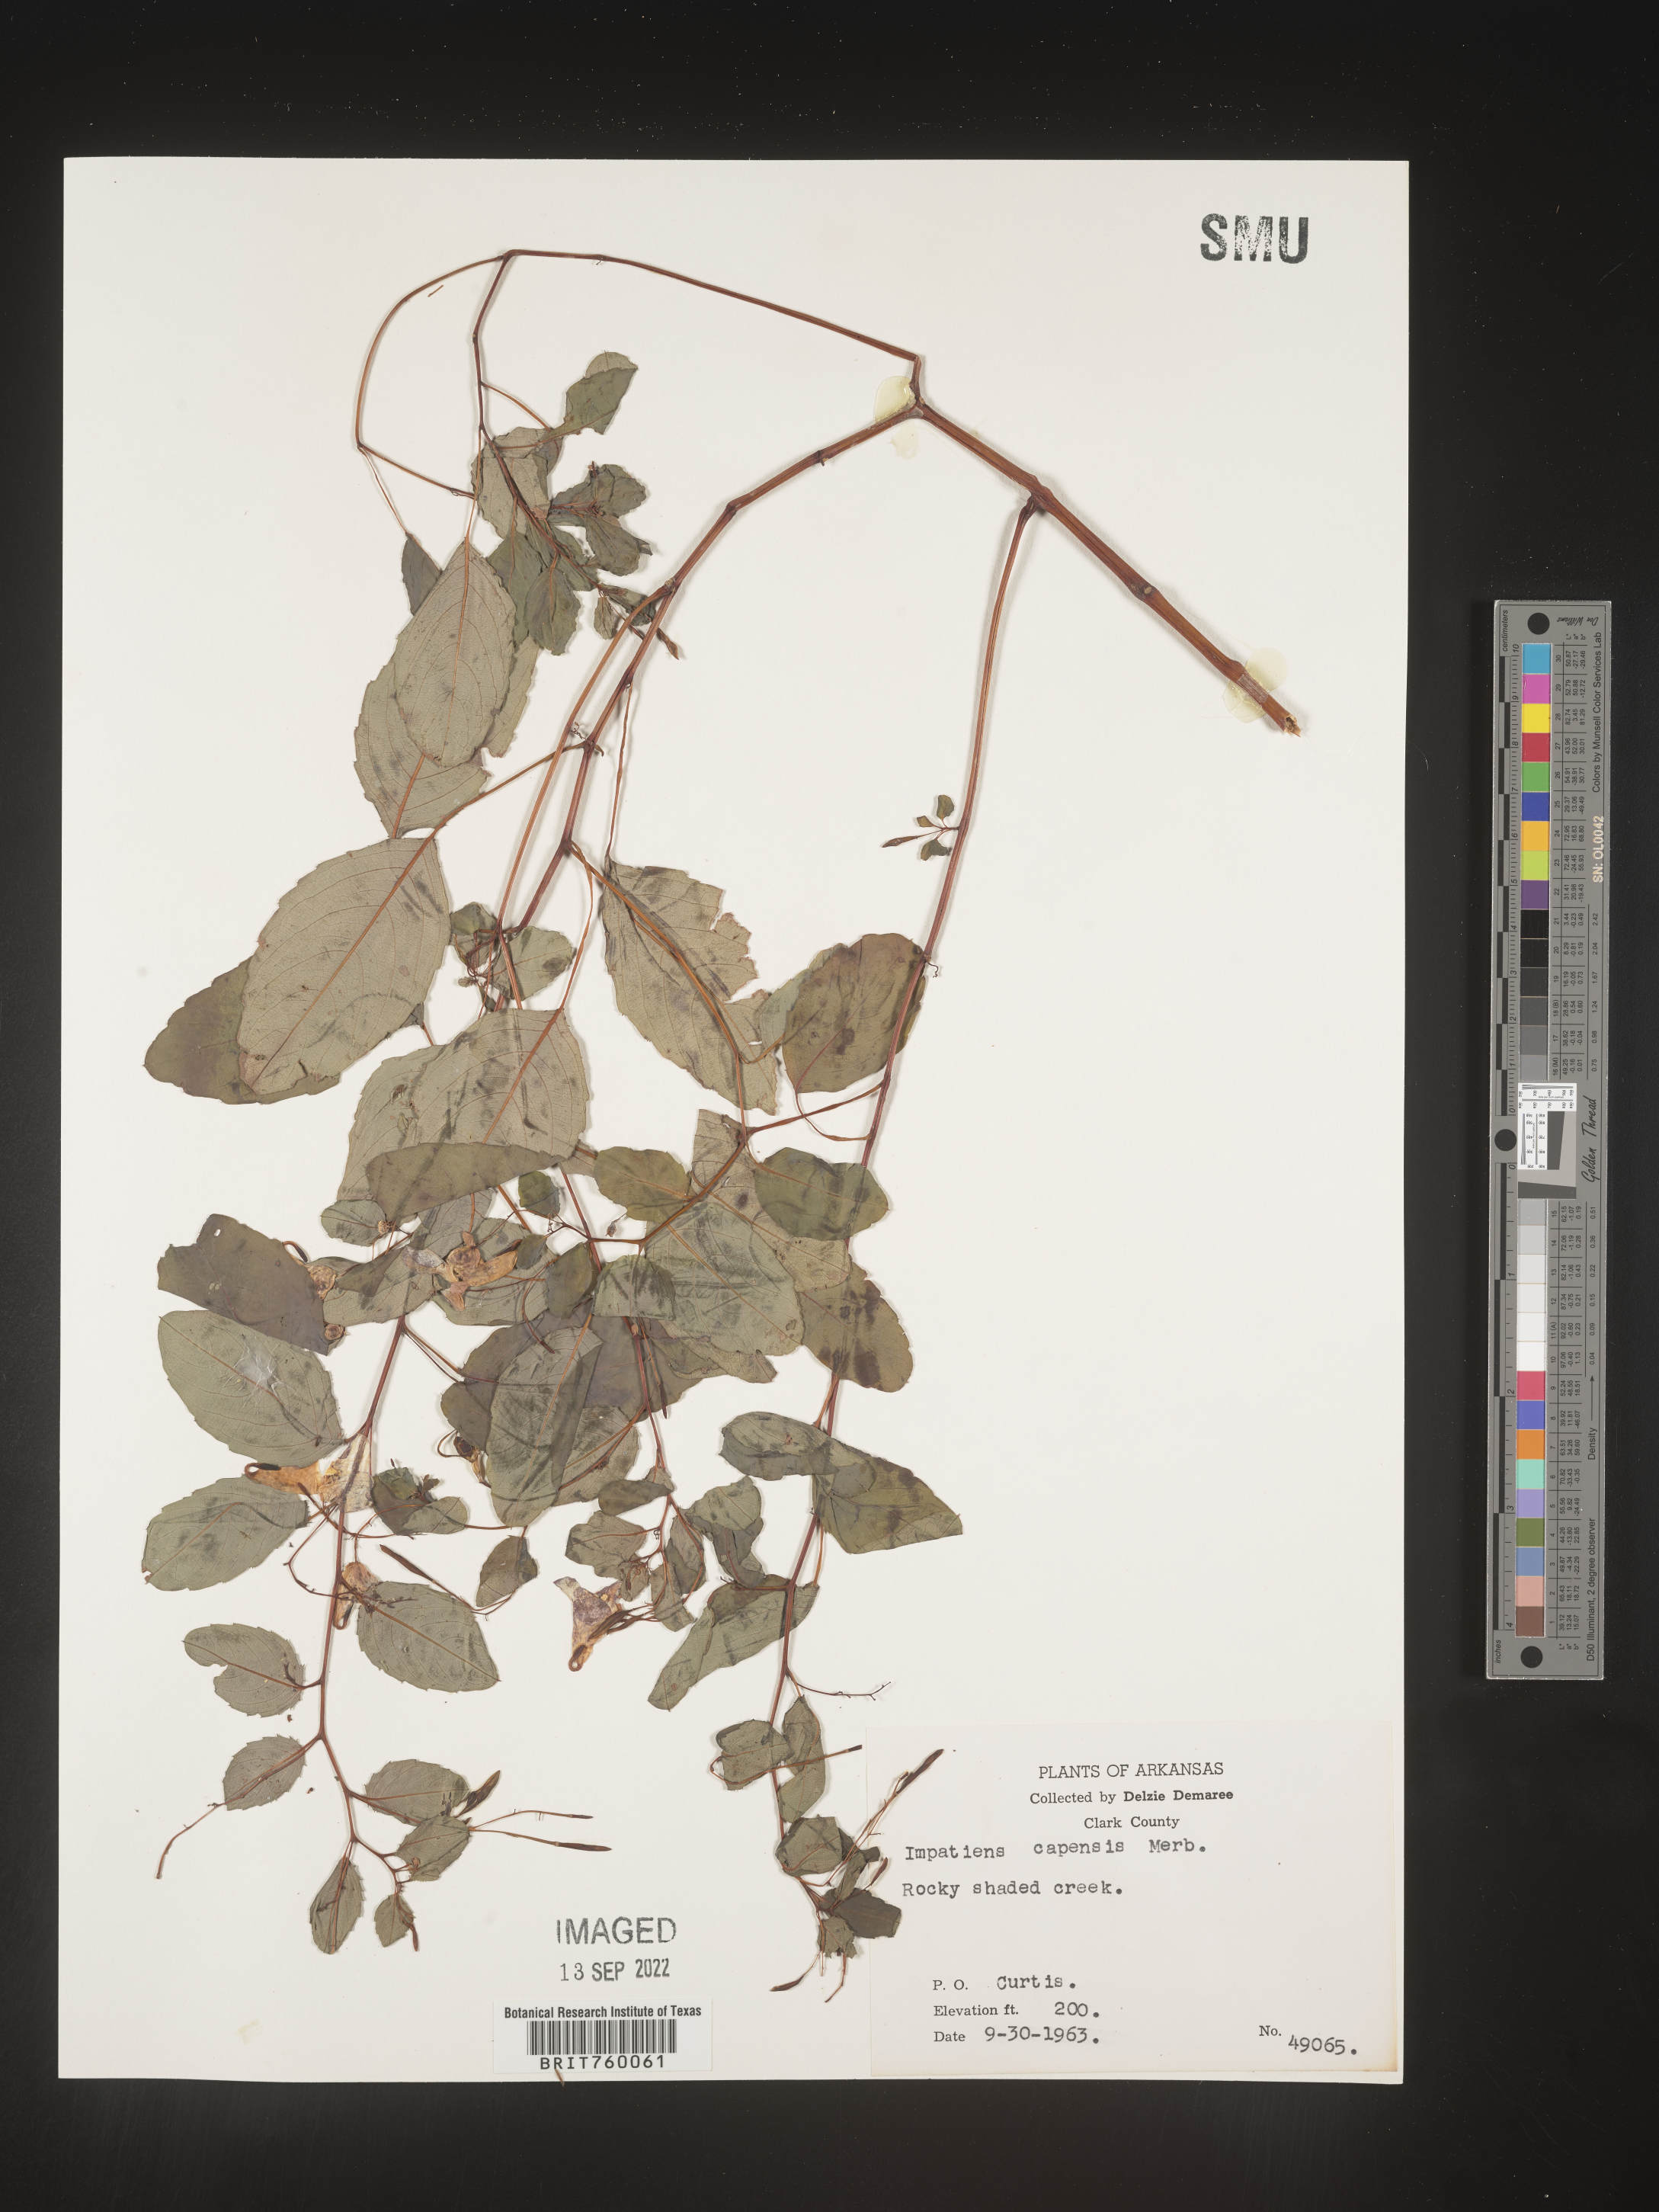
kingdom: Plantae
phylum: Tracheophyta
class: Magnoliopsida
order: Ericales
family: Balsaminaceae
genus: Impatiens
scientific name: Impatiens capensis
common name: Orange balsam
